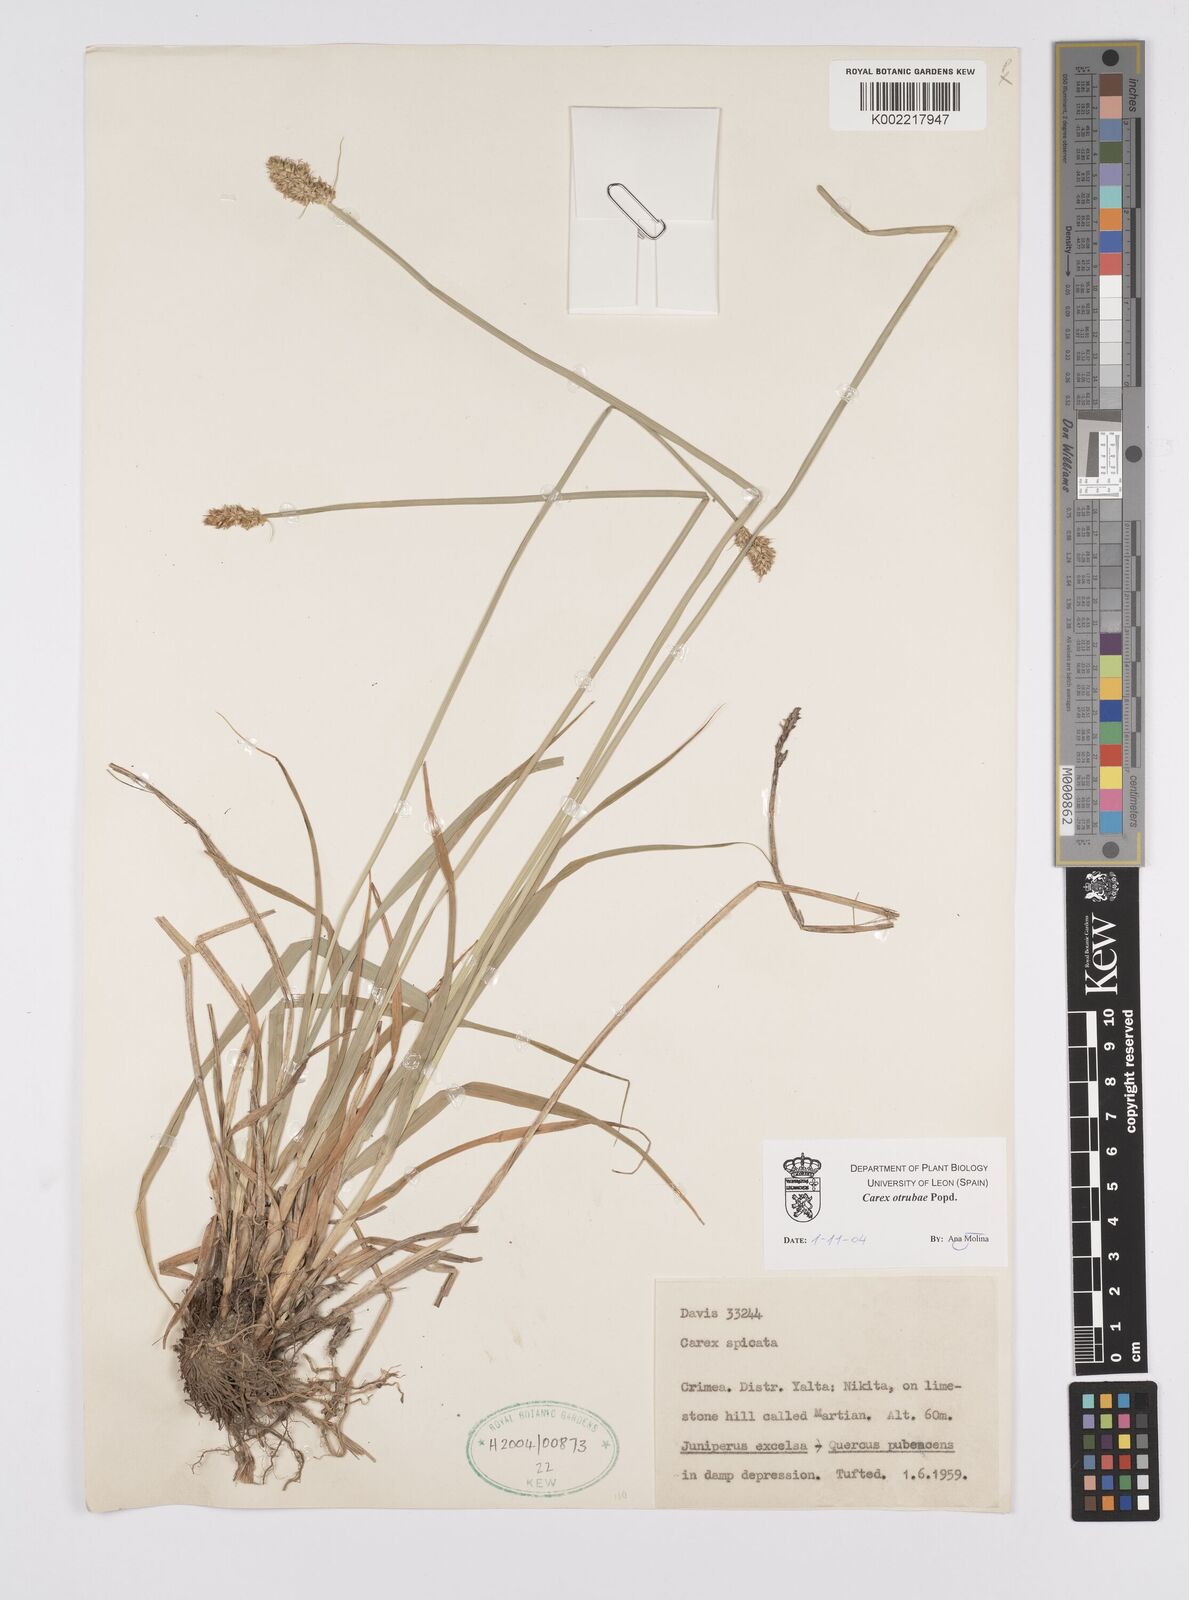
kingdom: Plantae
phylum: Tracheophyta
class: Liliopsida
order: Poales
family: Cyperaceae
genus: Carex
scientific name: Carex otrubae
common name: False fox-sedge
